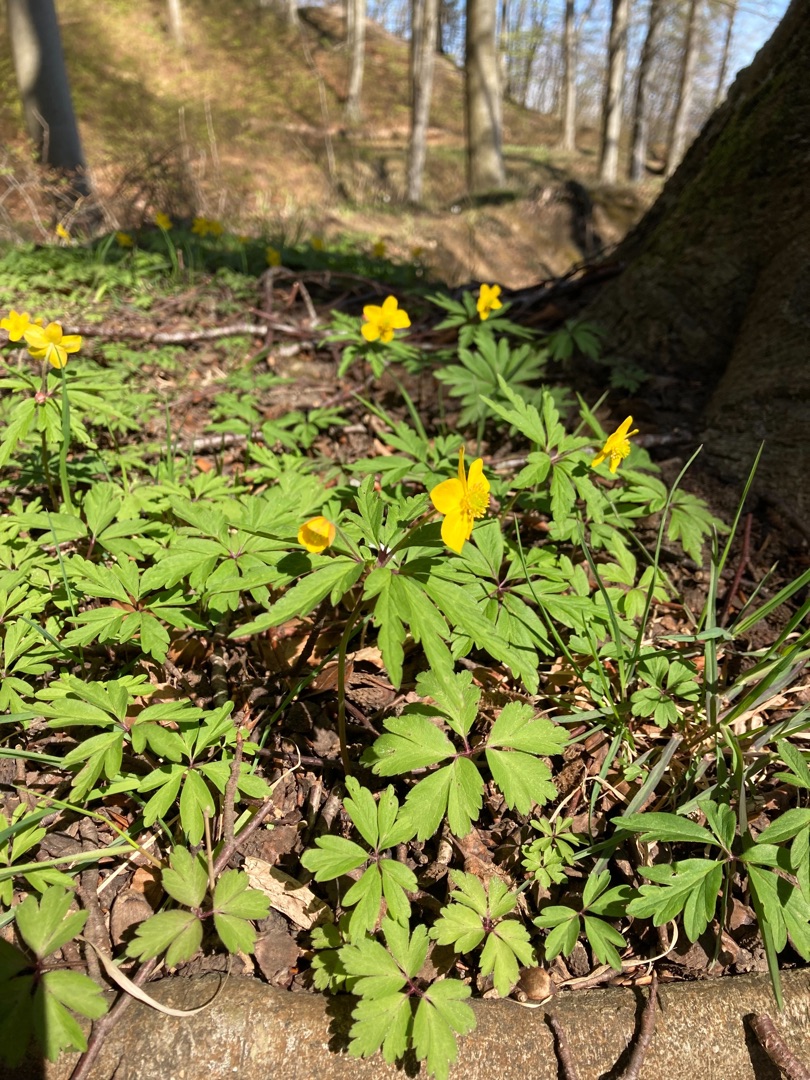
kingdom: Plantae
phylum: Tracheophyta
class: Magnoliopsida
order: Ranunculales
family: Ranunculaceae
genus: Anemone
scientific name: Anemone ranunculoides
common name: Gul anemone
